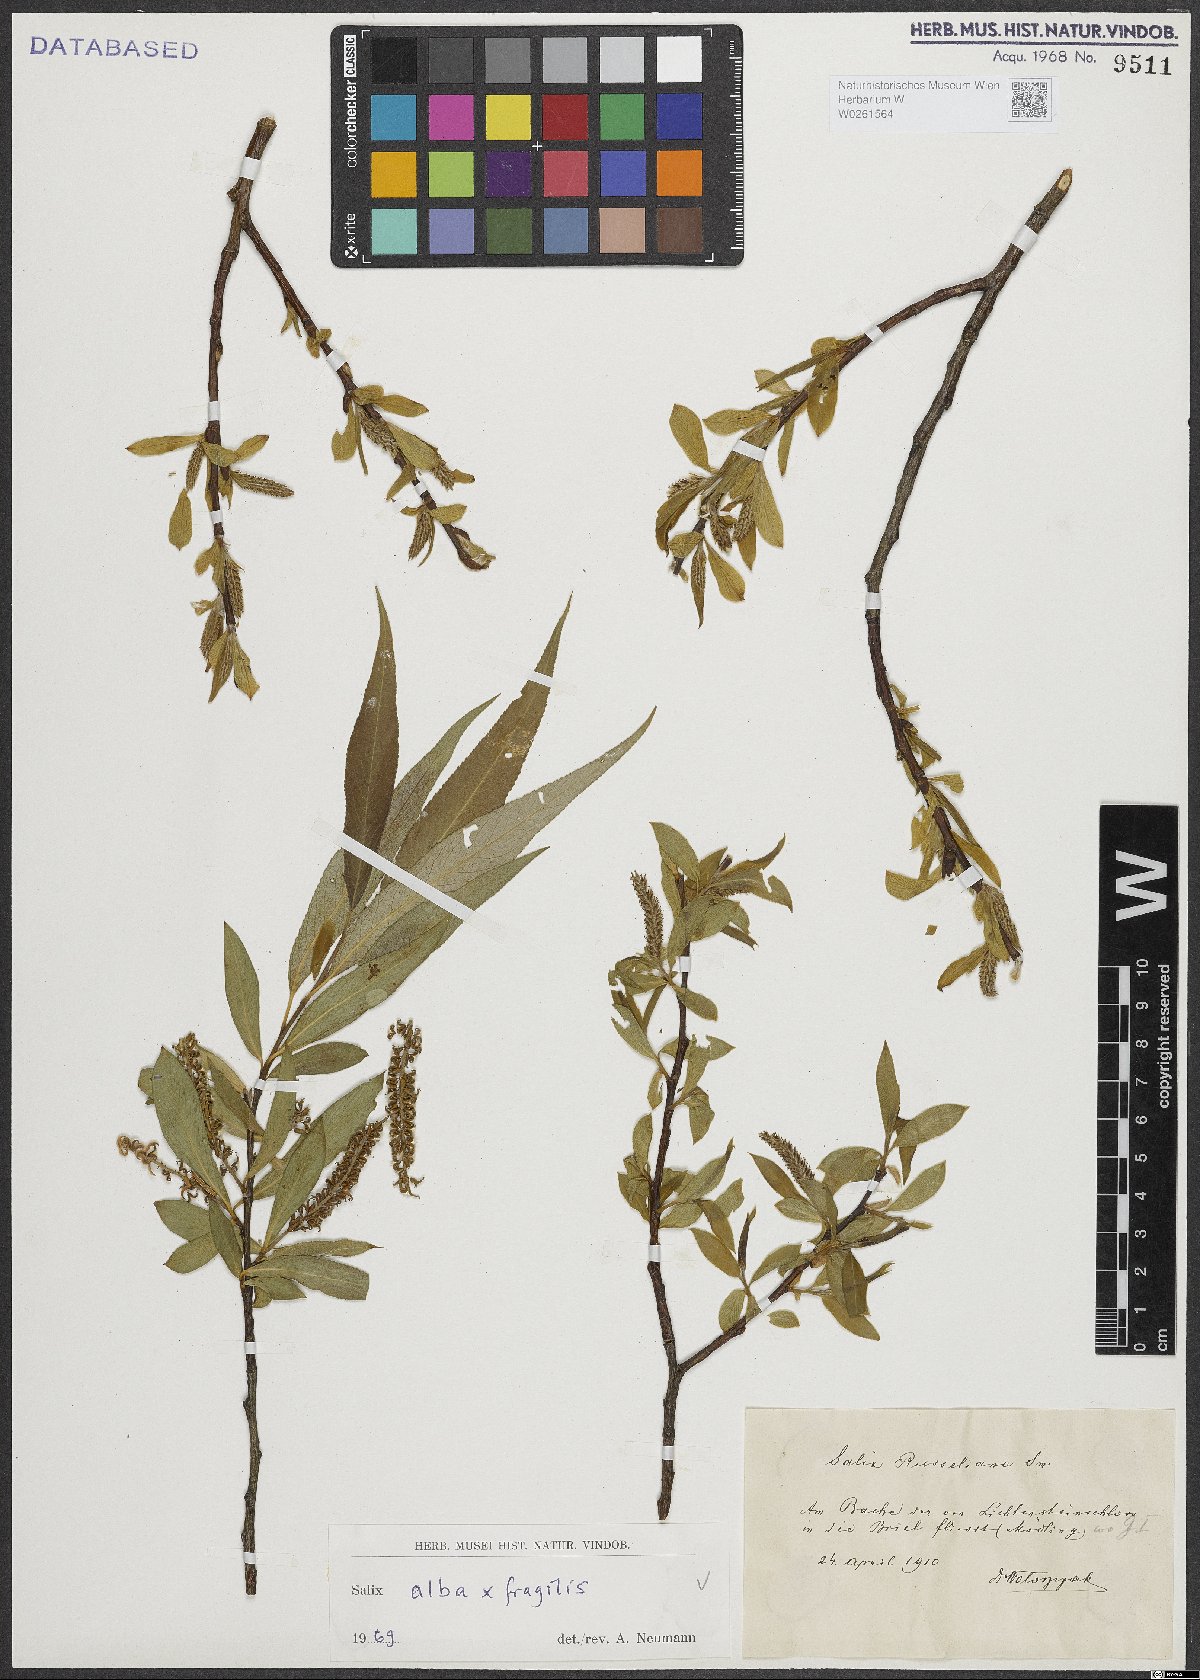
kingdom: Plantae
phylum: Tracheophyta
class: Magnoliopsida
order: Malpighiales
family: Salicaceae
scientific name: Salicaceae
